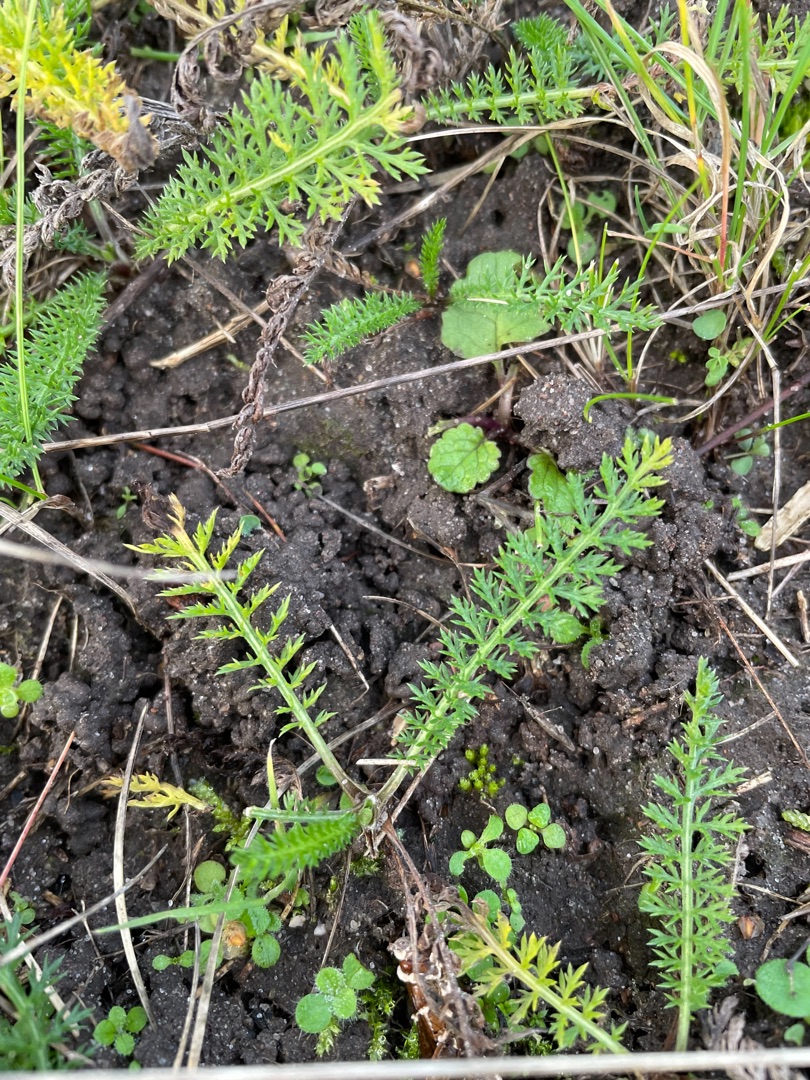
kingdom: Plantae
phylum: Tracheophyta
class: Magnoliopsida
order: Asterales
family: Asteraceae
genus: Achillea
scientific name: Achillea millefolium
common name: Almindelig røllike
